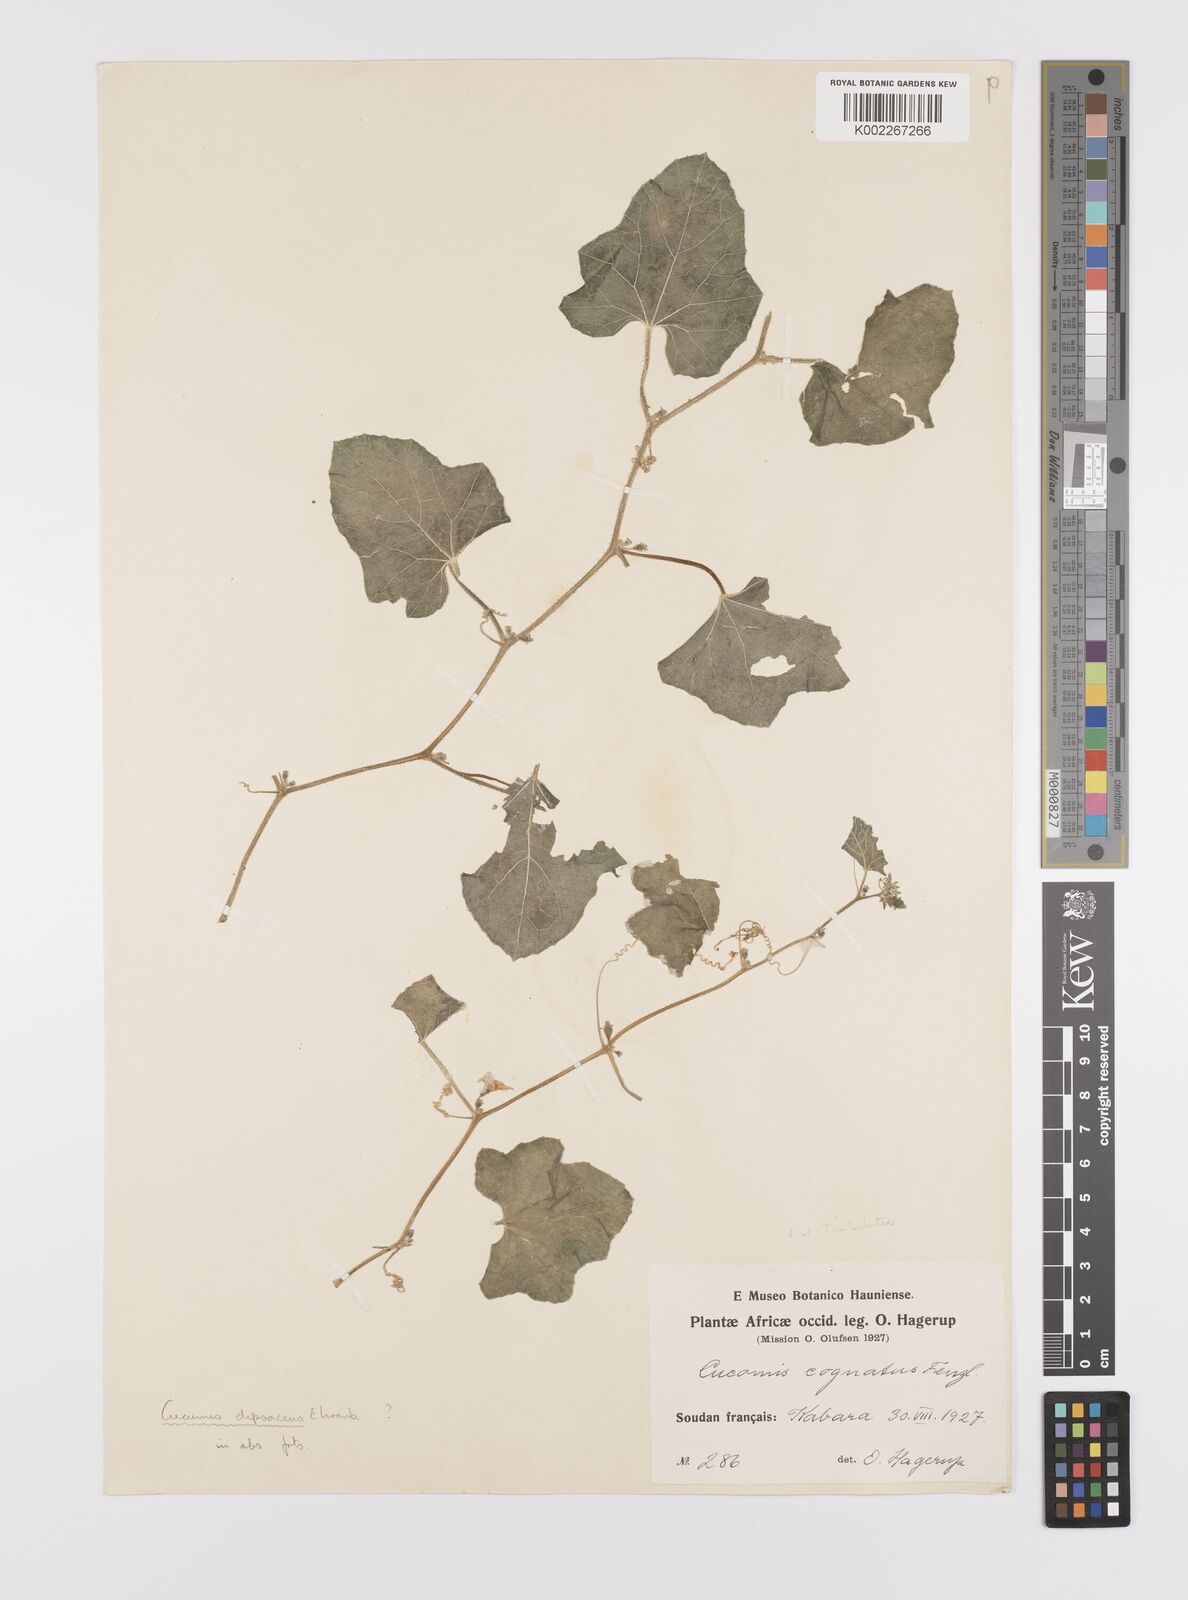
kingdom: Plantae
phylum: Tracheophyta
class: Magnoliopsida
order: Cucurbitales
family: Cucurbitaceae
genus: Cucumis
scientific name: Cucumis melo
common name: Melon
